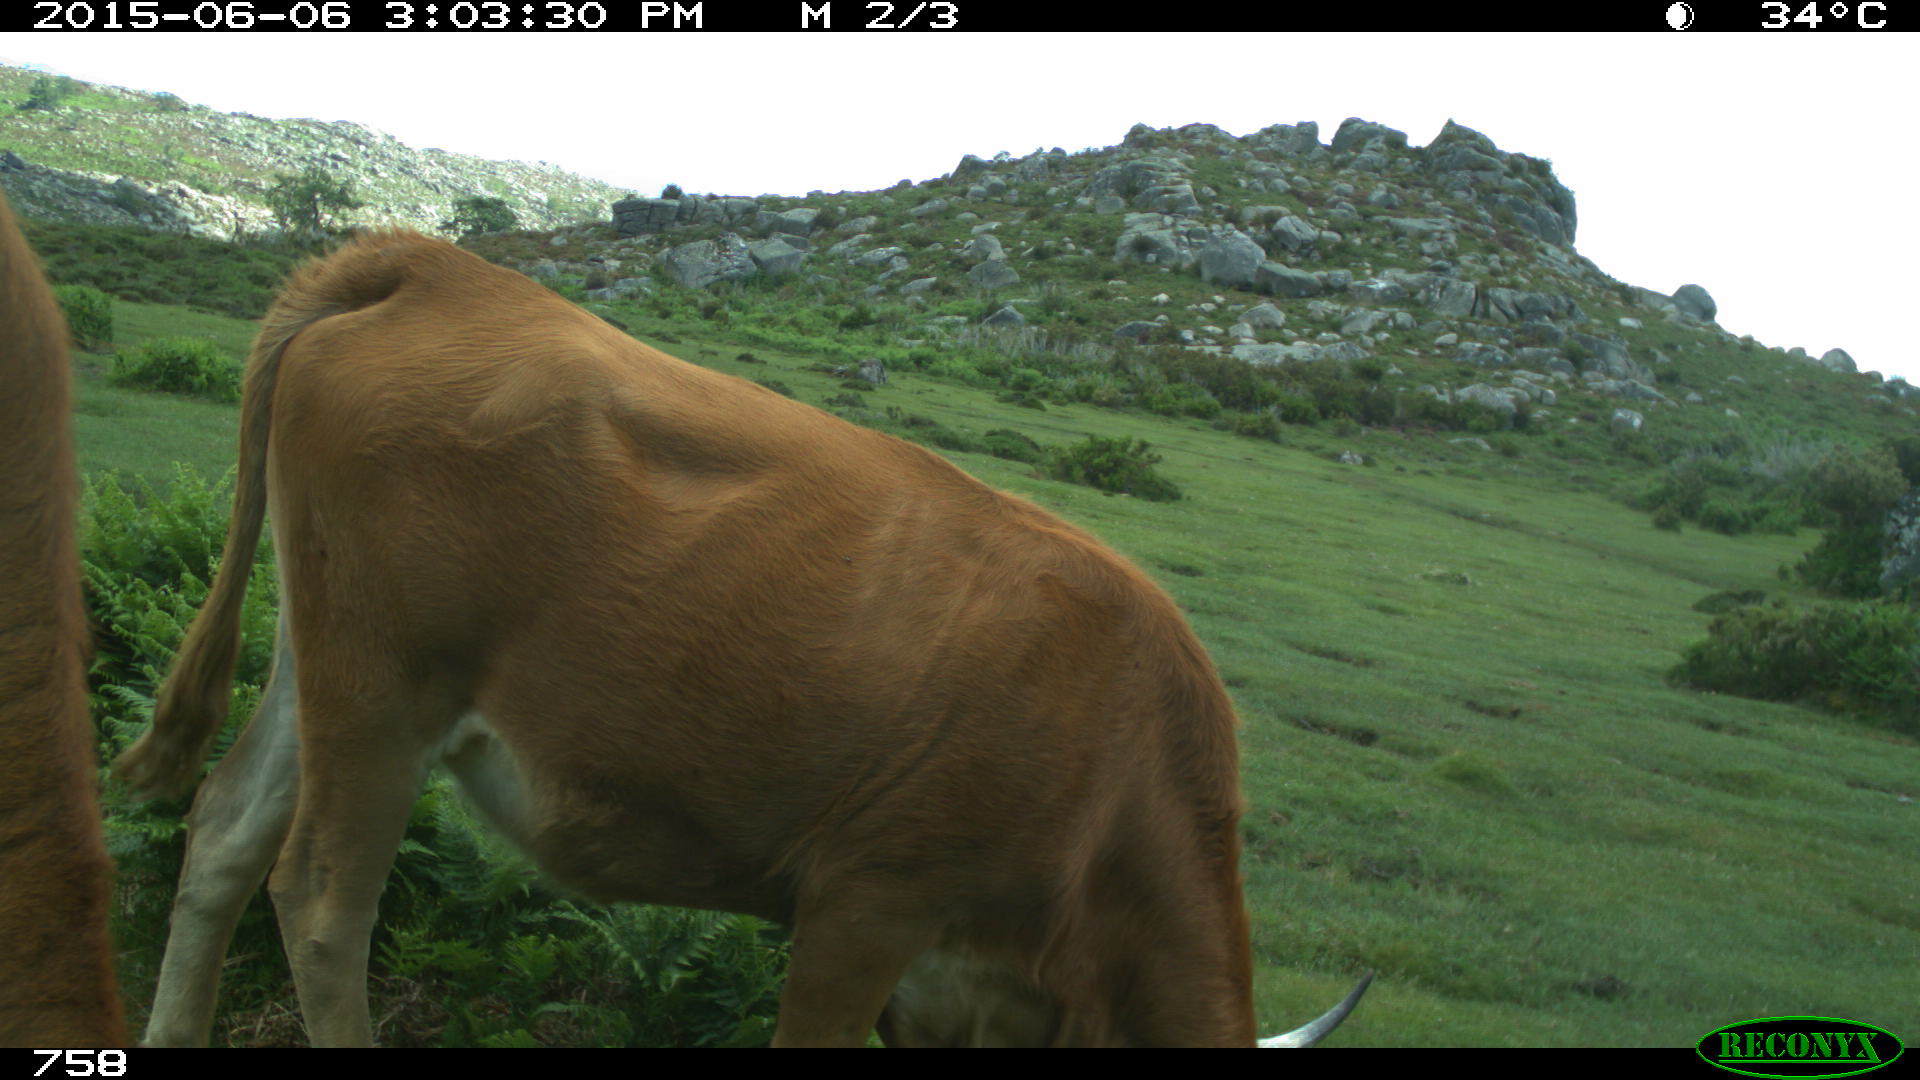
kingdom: Animalia
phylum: Chordata
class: Mammalia
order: Artiodactyla
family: Bovidae
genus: Bos
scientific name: Bos taurus
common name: Domesticated cattle
